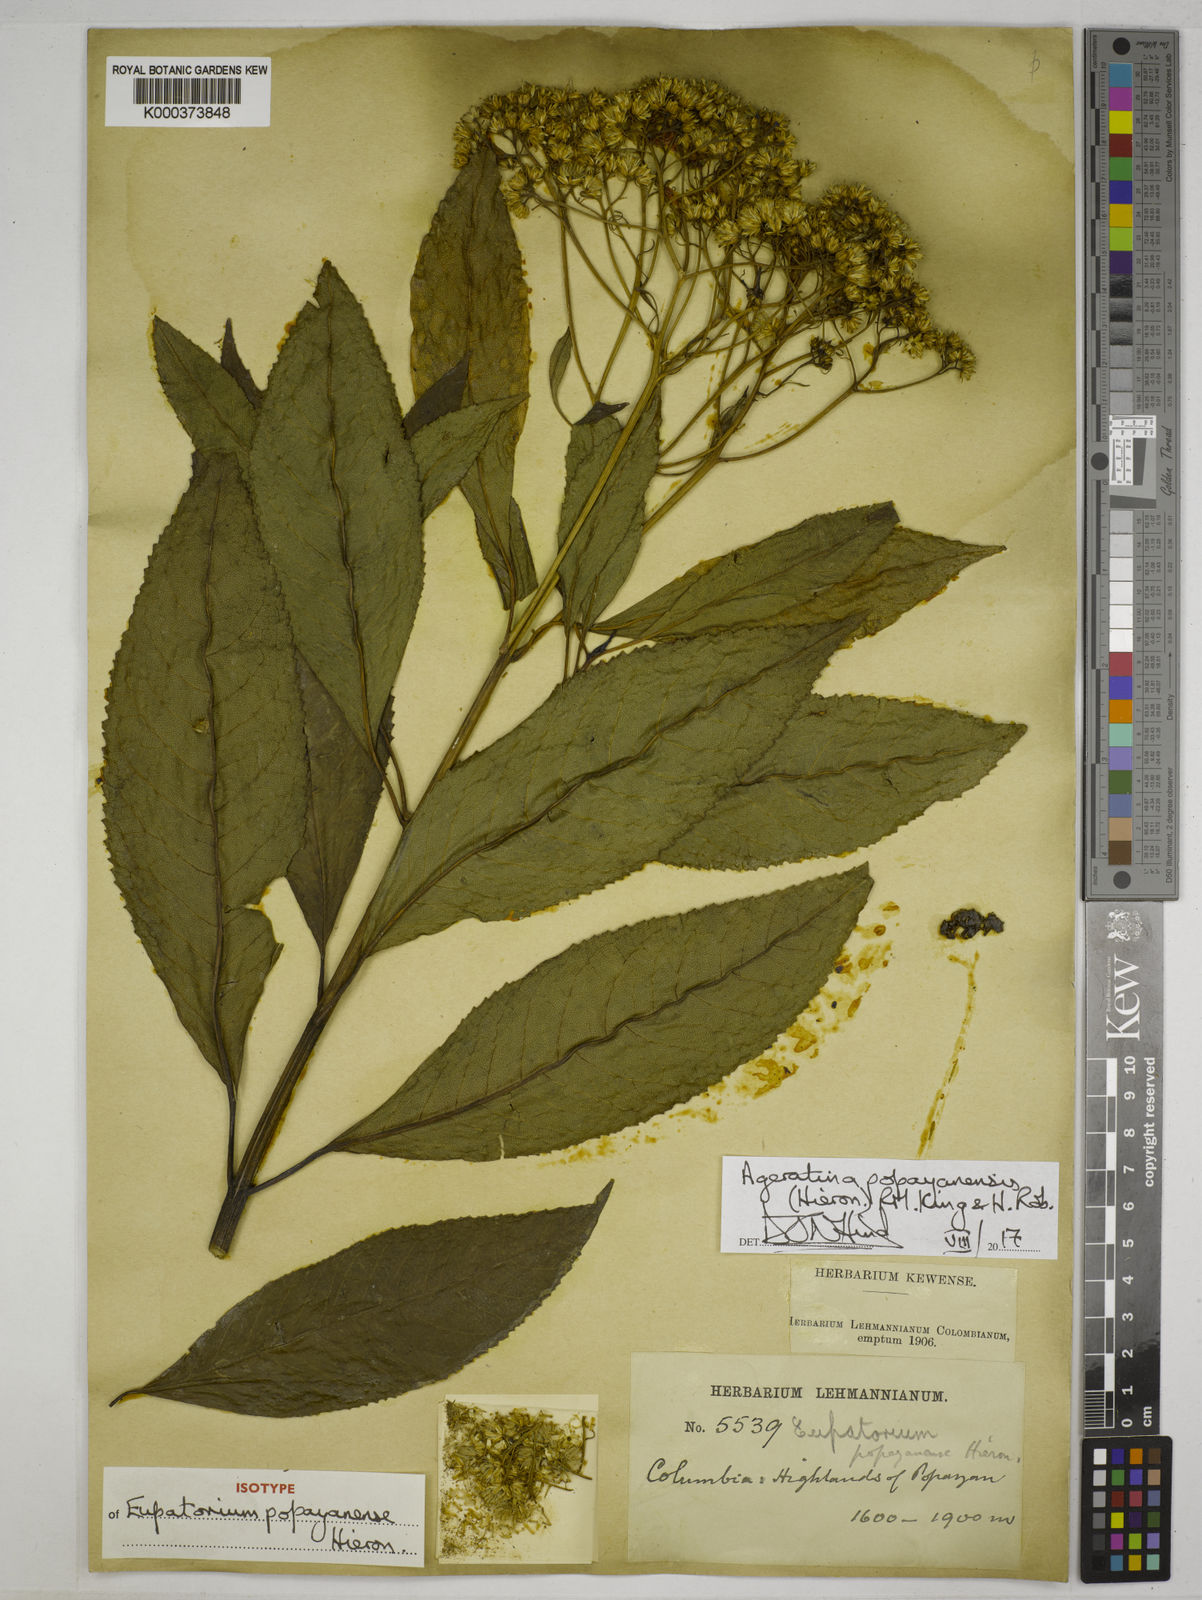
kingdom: Plantae
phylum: Tracheophyta
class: Magnoliopsida
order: Asterales
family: Asteraceae
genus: Ageratina
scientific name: Ageratina popayanensis
